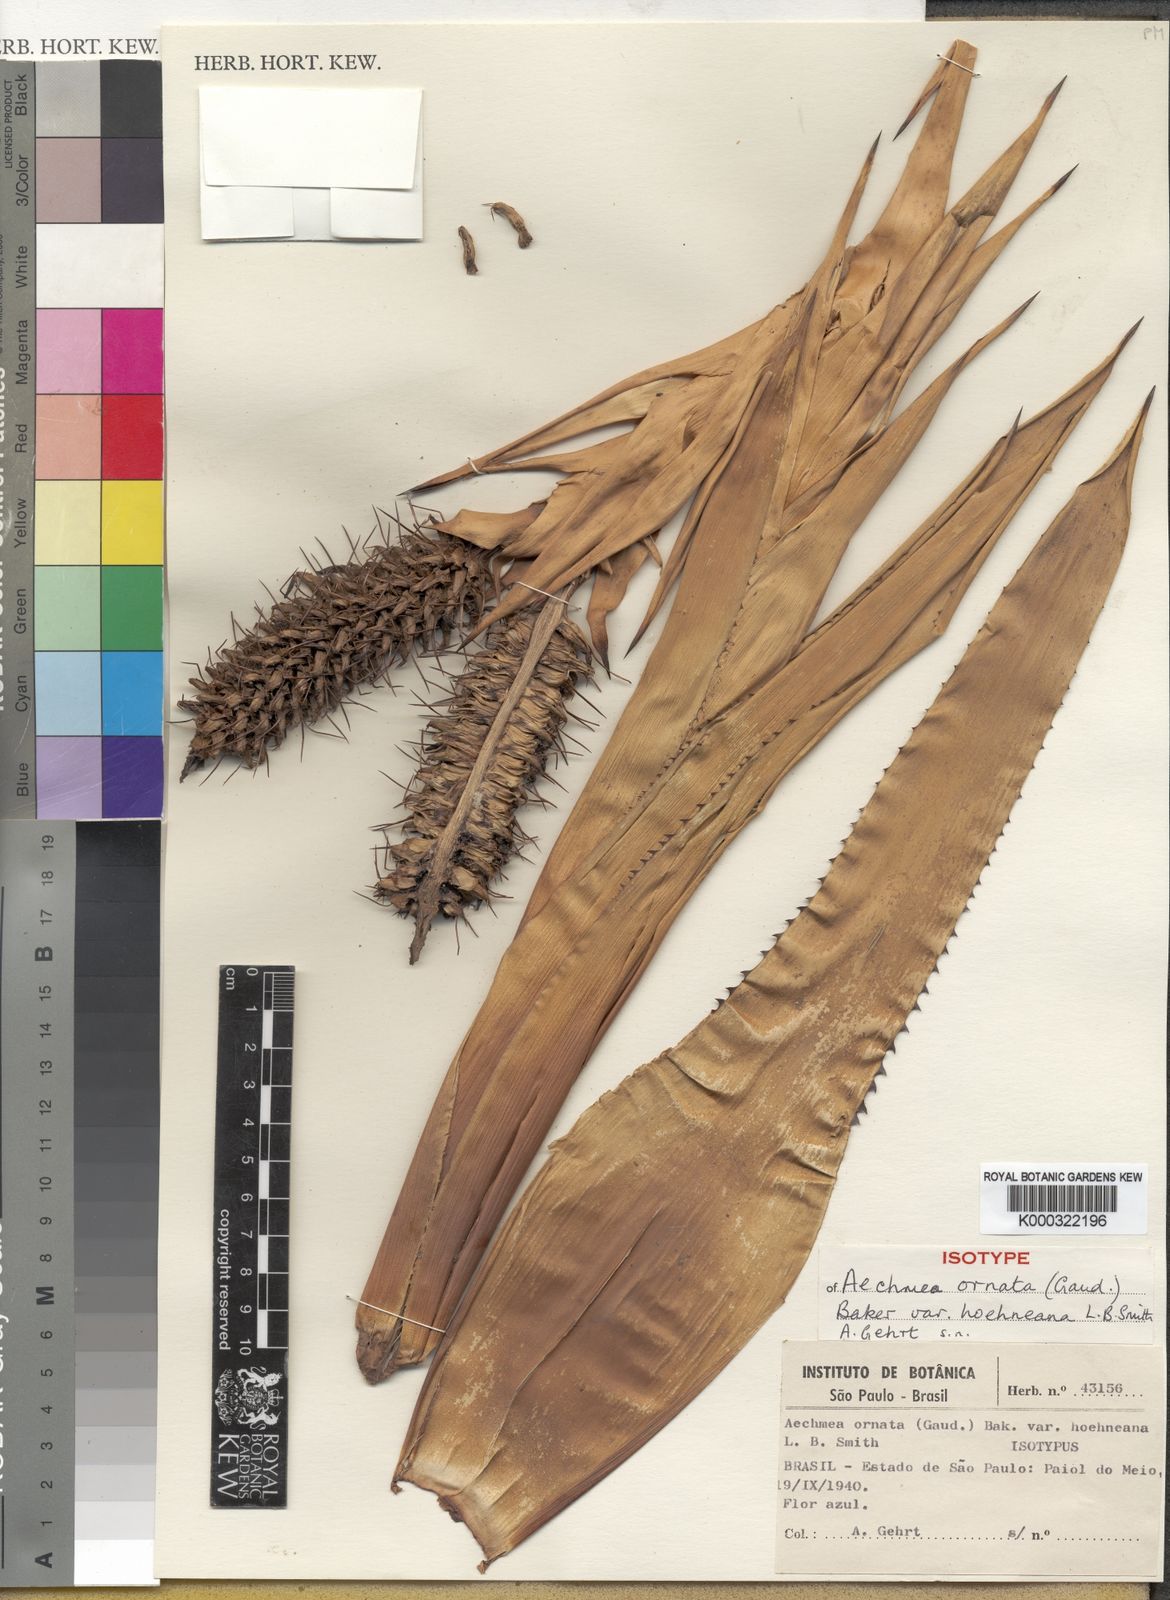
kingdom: Plantae
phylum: Tracheophyta
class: Liliopsida
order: Poales
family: Bromeliaceae
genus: Aechmea
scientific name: Aechmea ornata
